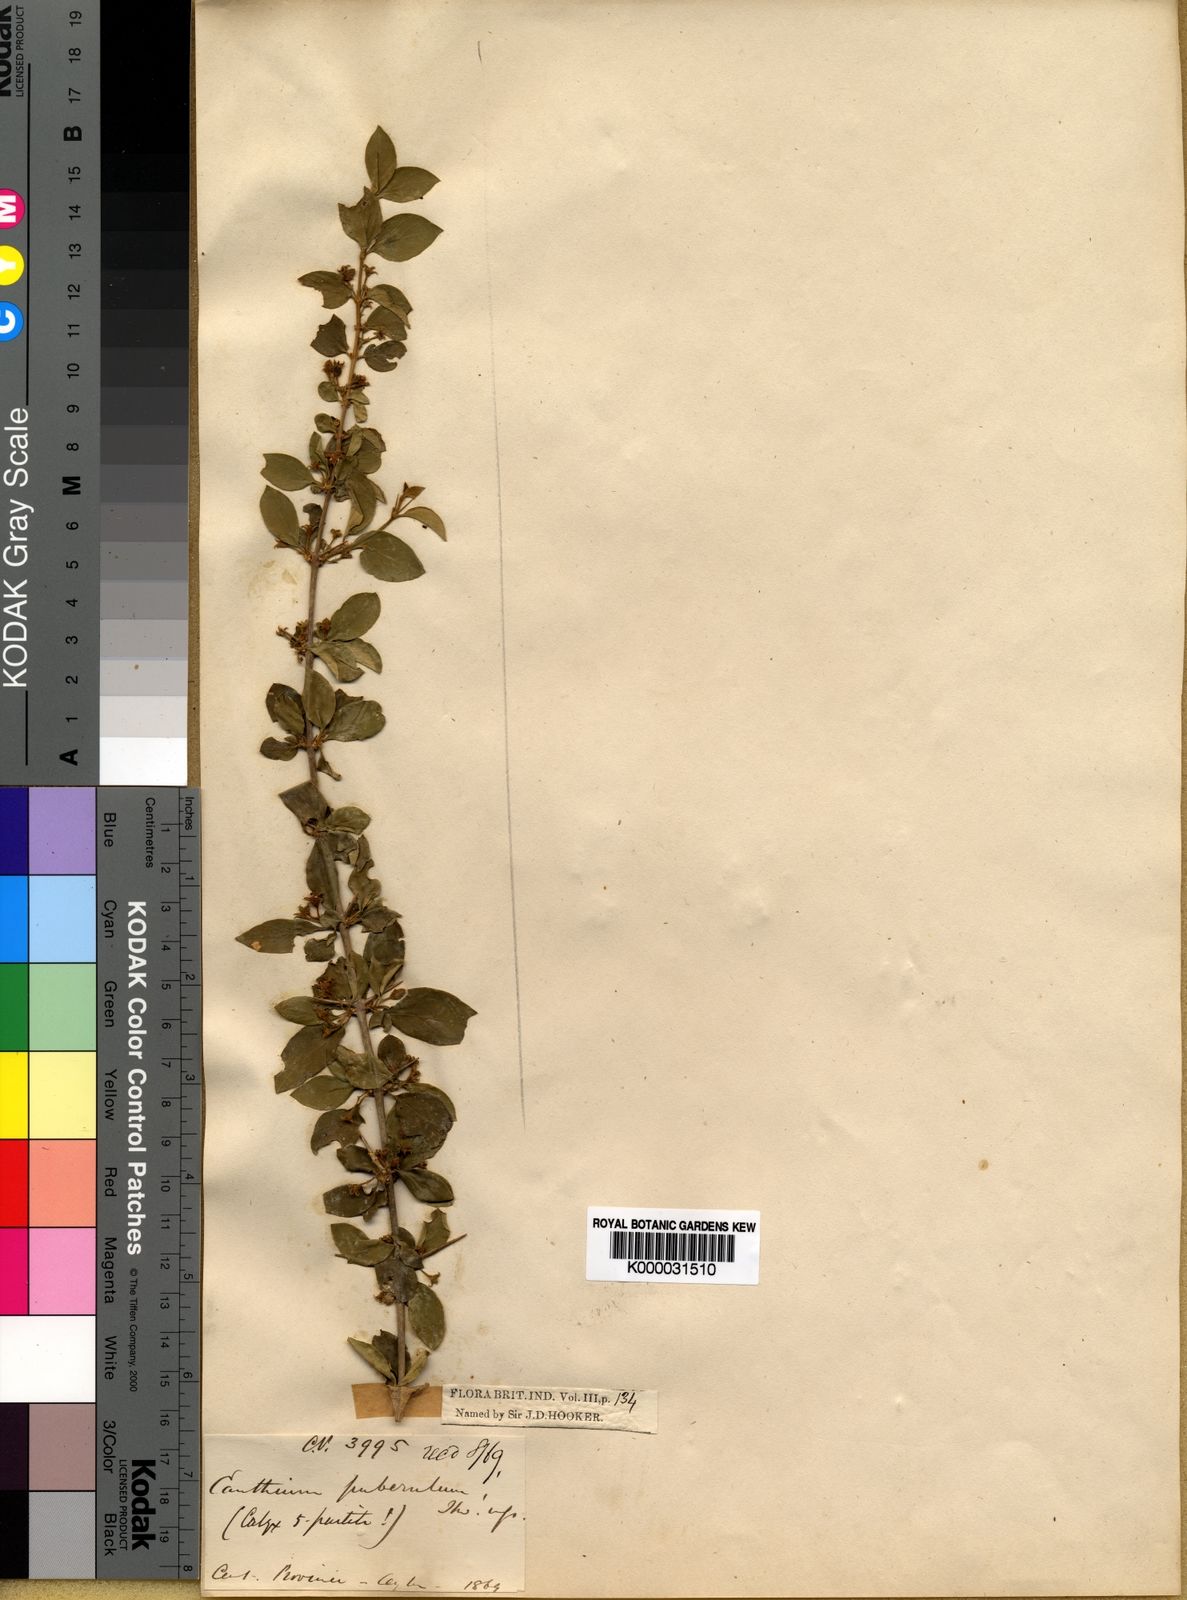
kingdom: Plantae
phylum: Tracheophyta
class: Magnoliopsida
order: Gentianales
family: Rubiaceae
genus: Canthium
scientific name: Canthium
